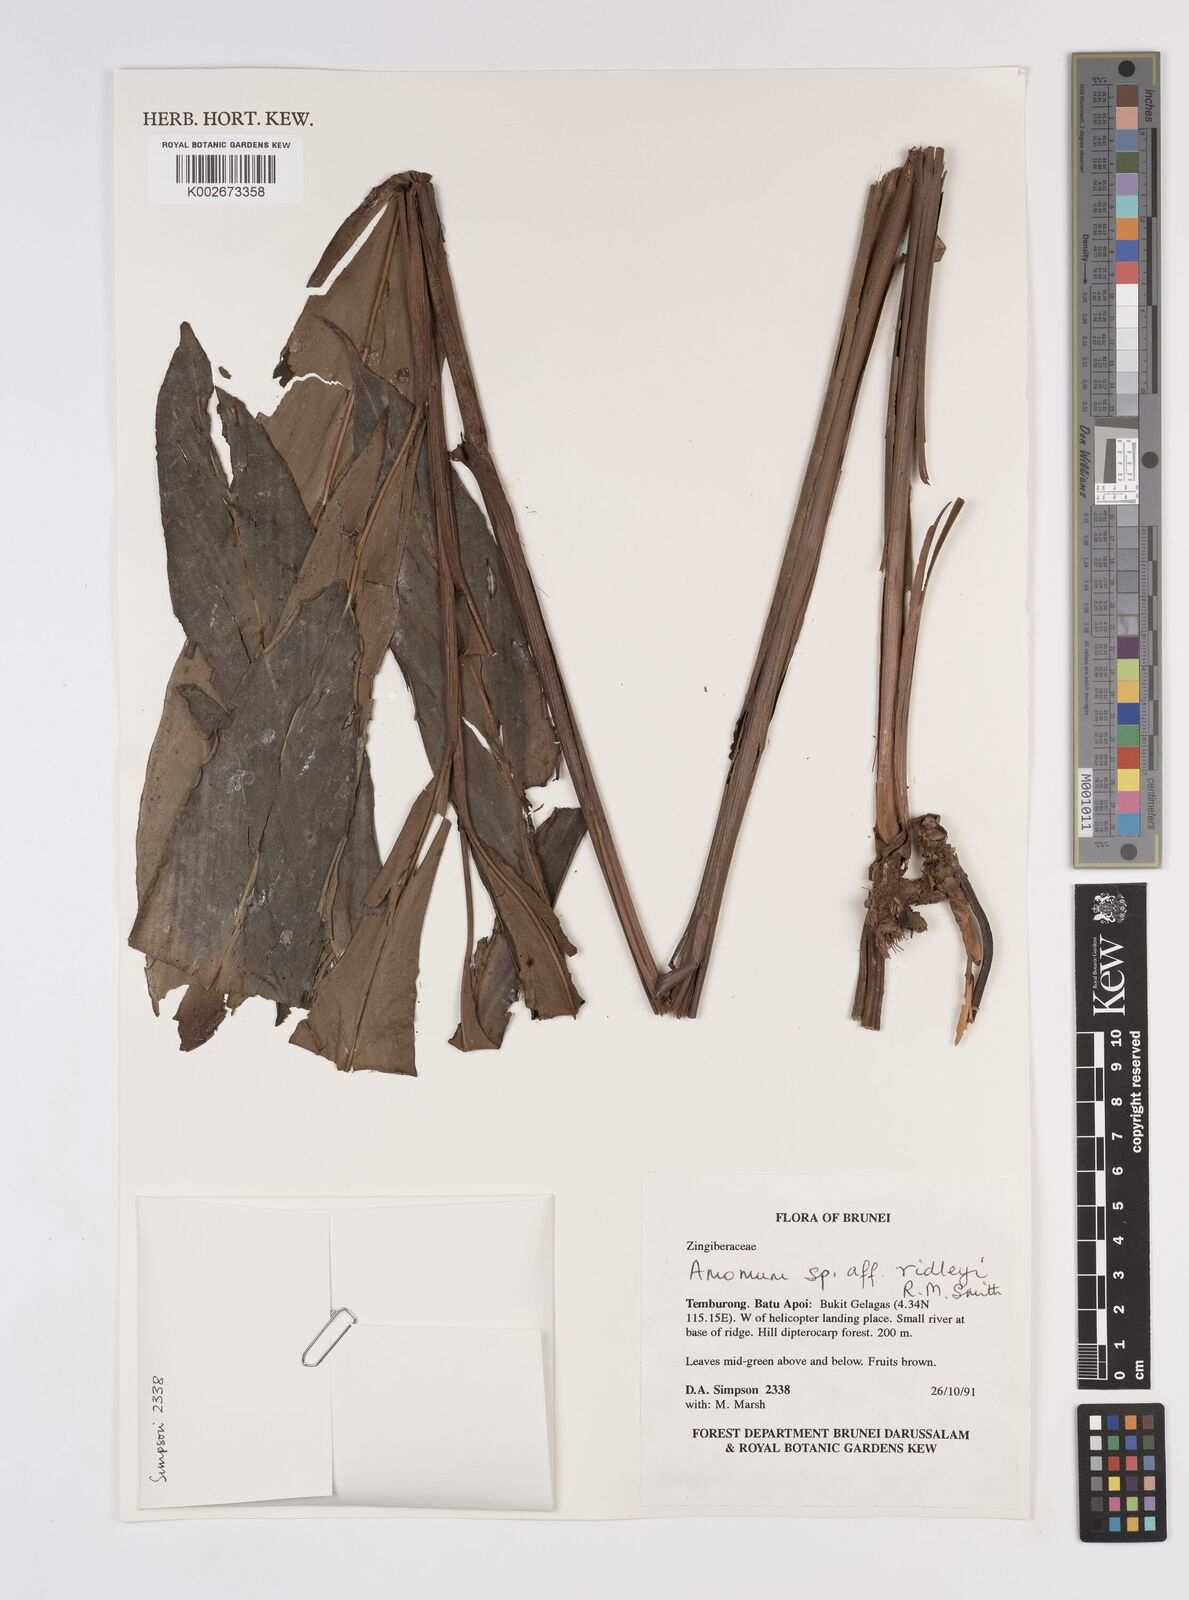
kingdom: Plantae
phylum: Tracheophyta
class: Liliopsida
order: Zingiberales
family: Zingiberaceae
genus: Amomum
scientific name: Amomum
